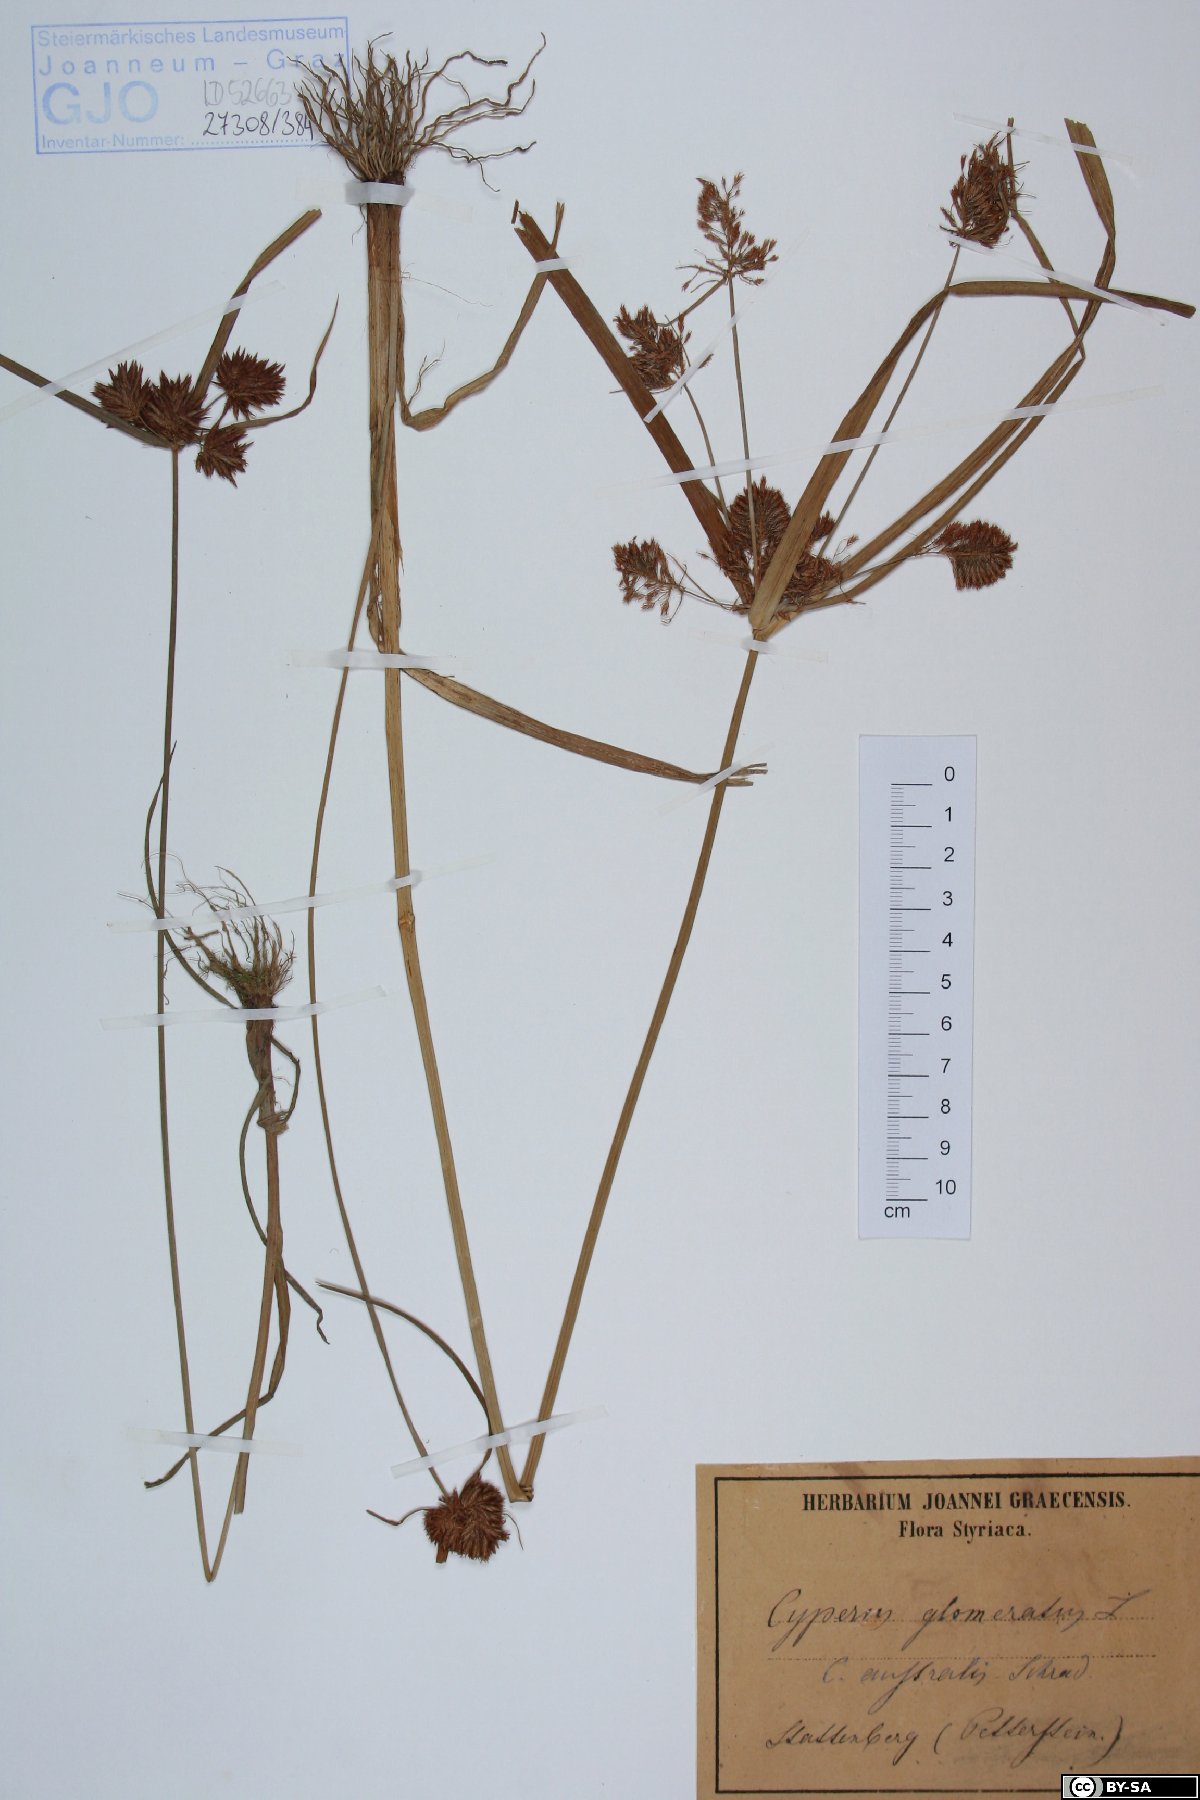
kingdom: Plantae
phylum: Tracheophyta
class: Liliopsida
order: Poales
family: Cyperaceae
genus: Cyperus
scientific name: Cyperus glomeratus
